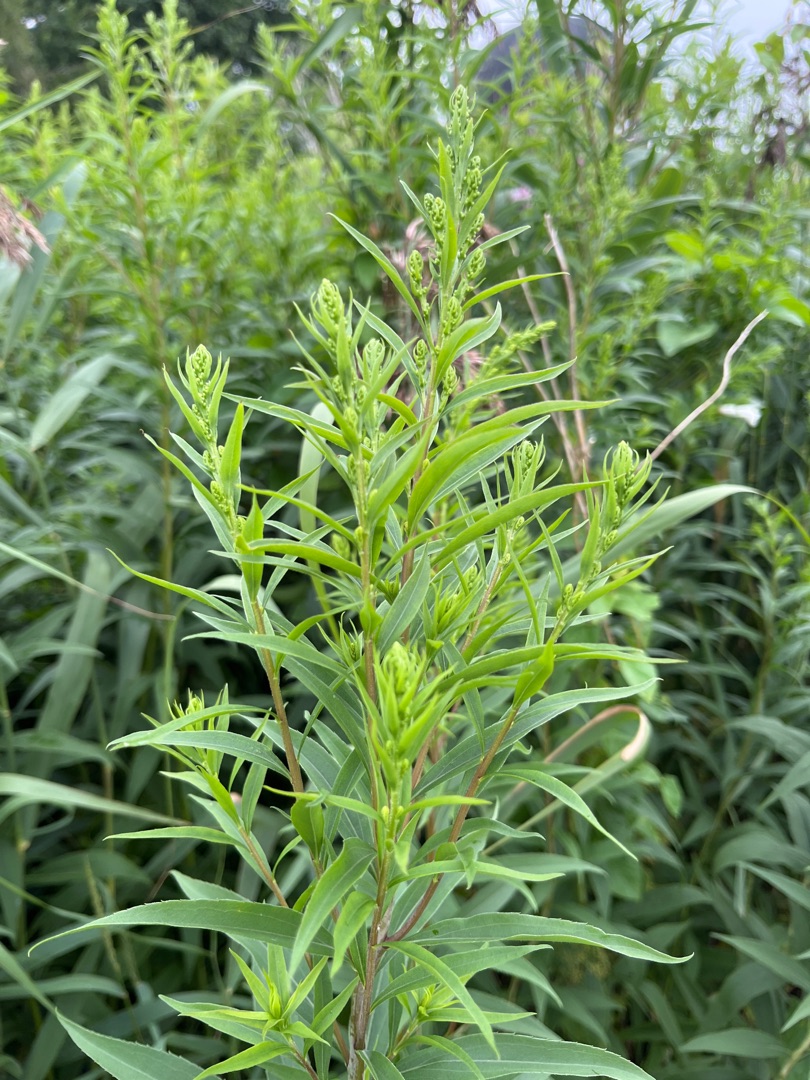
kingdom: Plantae
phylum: Tracheophyta
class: Magnoliopsida
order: Asterales
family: Asteraceae
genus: Solidago
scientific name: Solidago gigantea
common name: Sildig gyldenris
